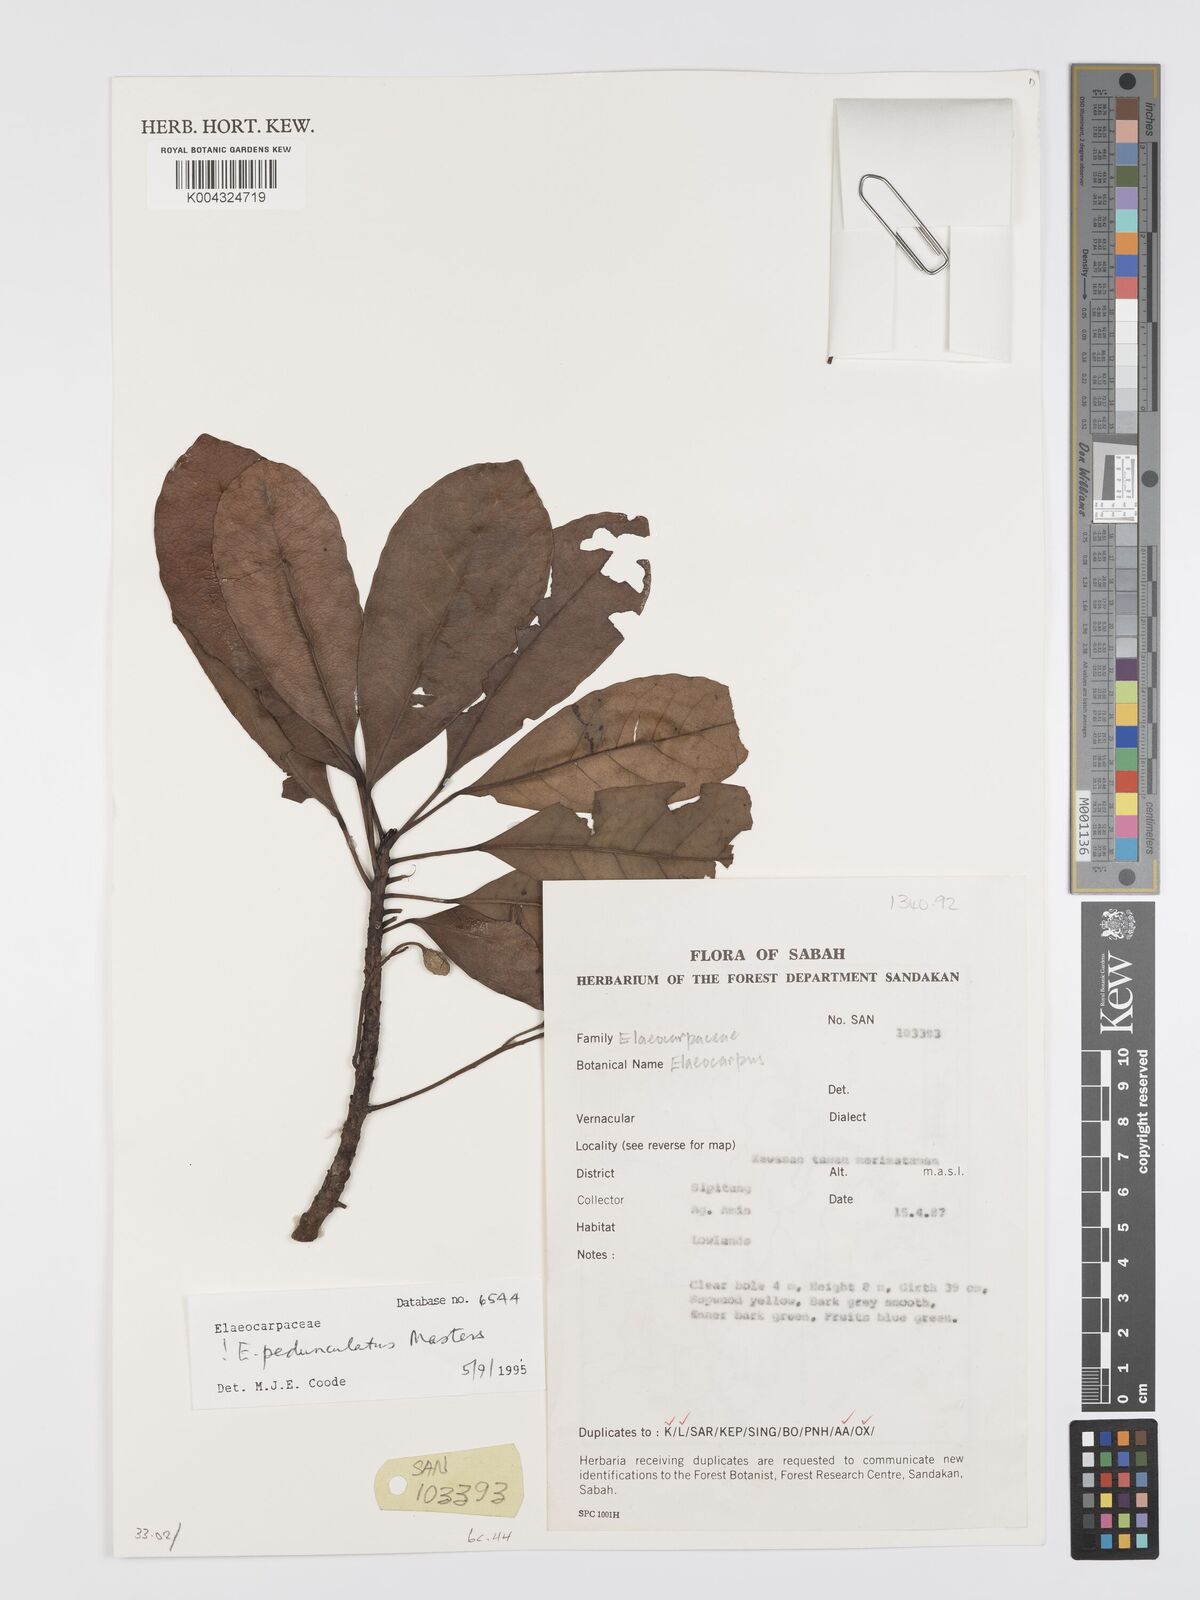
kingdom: Plantae
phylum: Tracheophyta
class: Magnoliopsida
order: Oxalidales
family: Elaeocarpaceae
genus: Elaeocarpus
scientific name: Elaeocarpus pedunculatus
